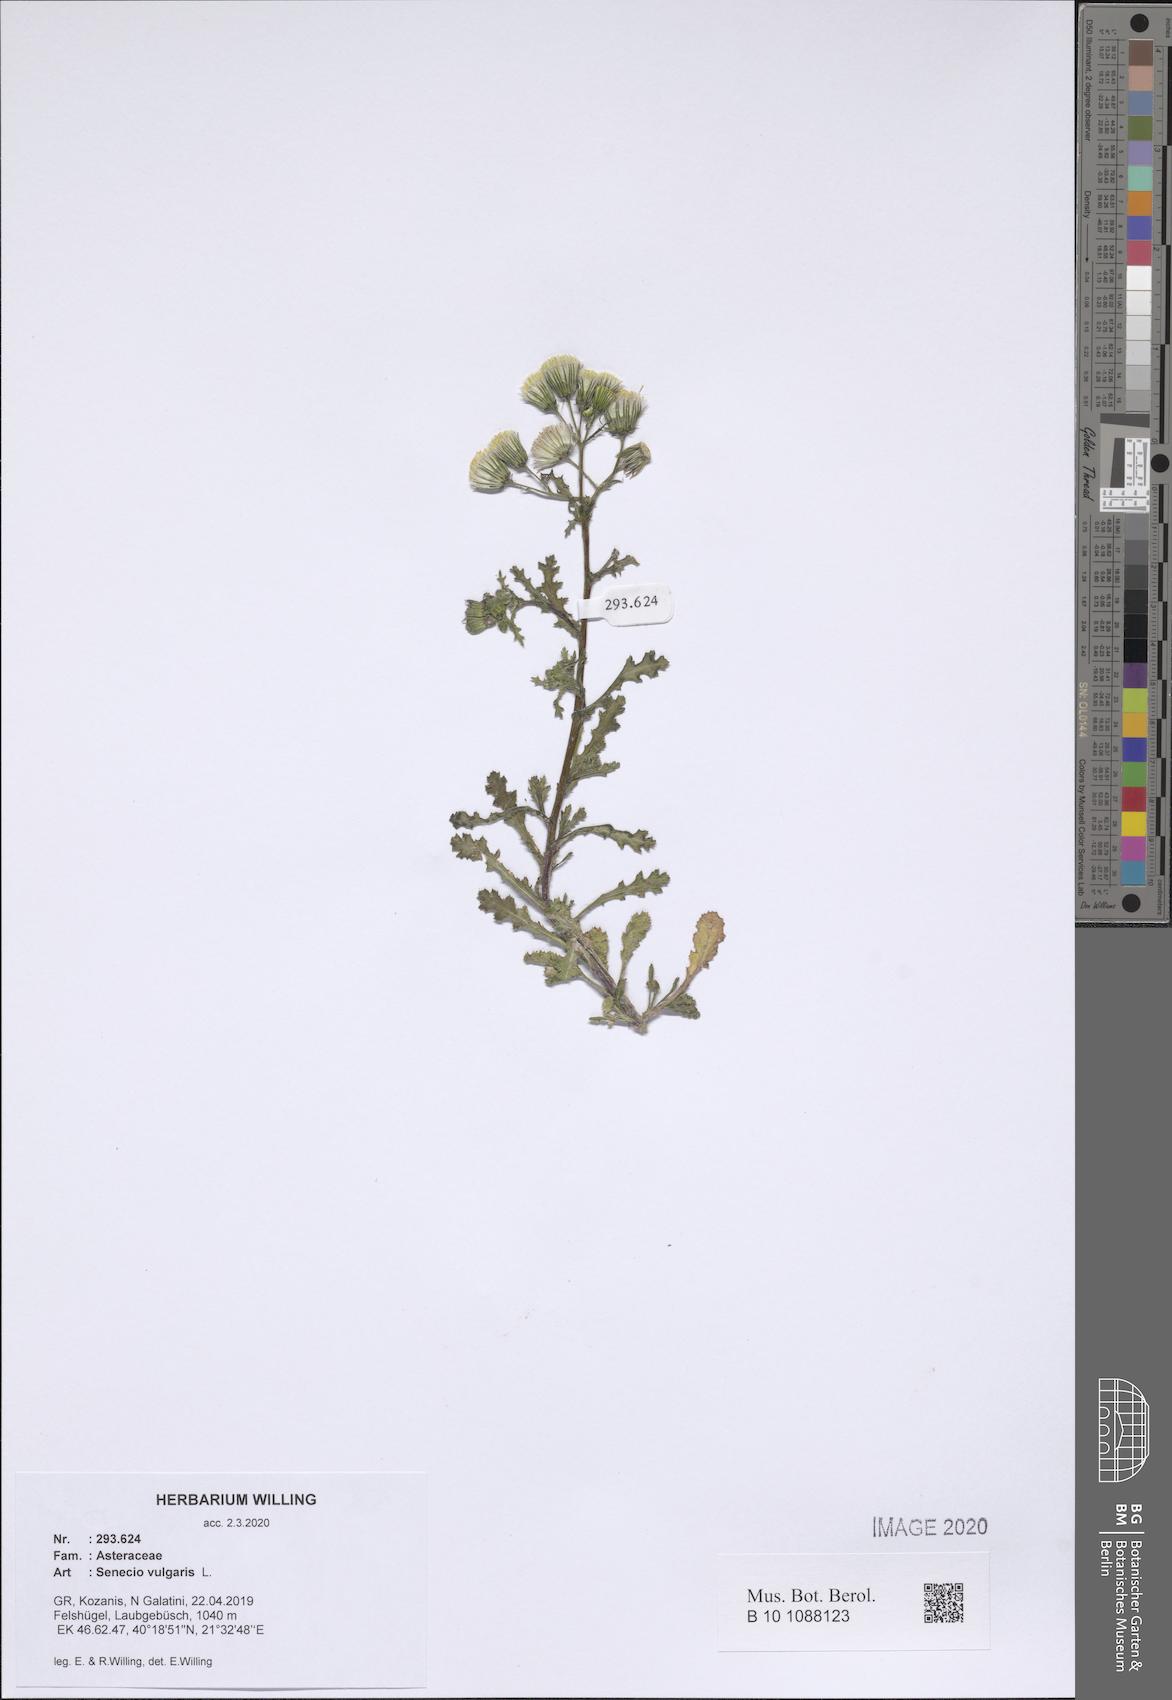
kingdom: Plantae
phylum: Tracheophyta
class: Magnoliopsida
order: Asterales
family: Asteraceae
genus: Senecio
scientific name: Senecio vulgaris
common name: Old-man-in-the-spring
